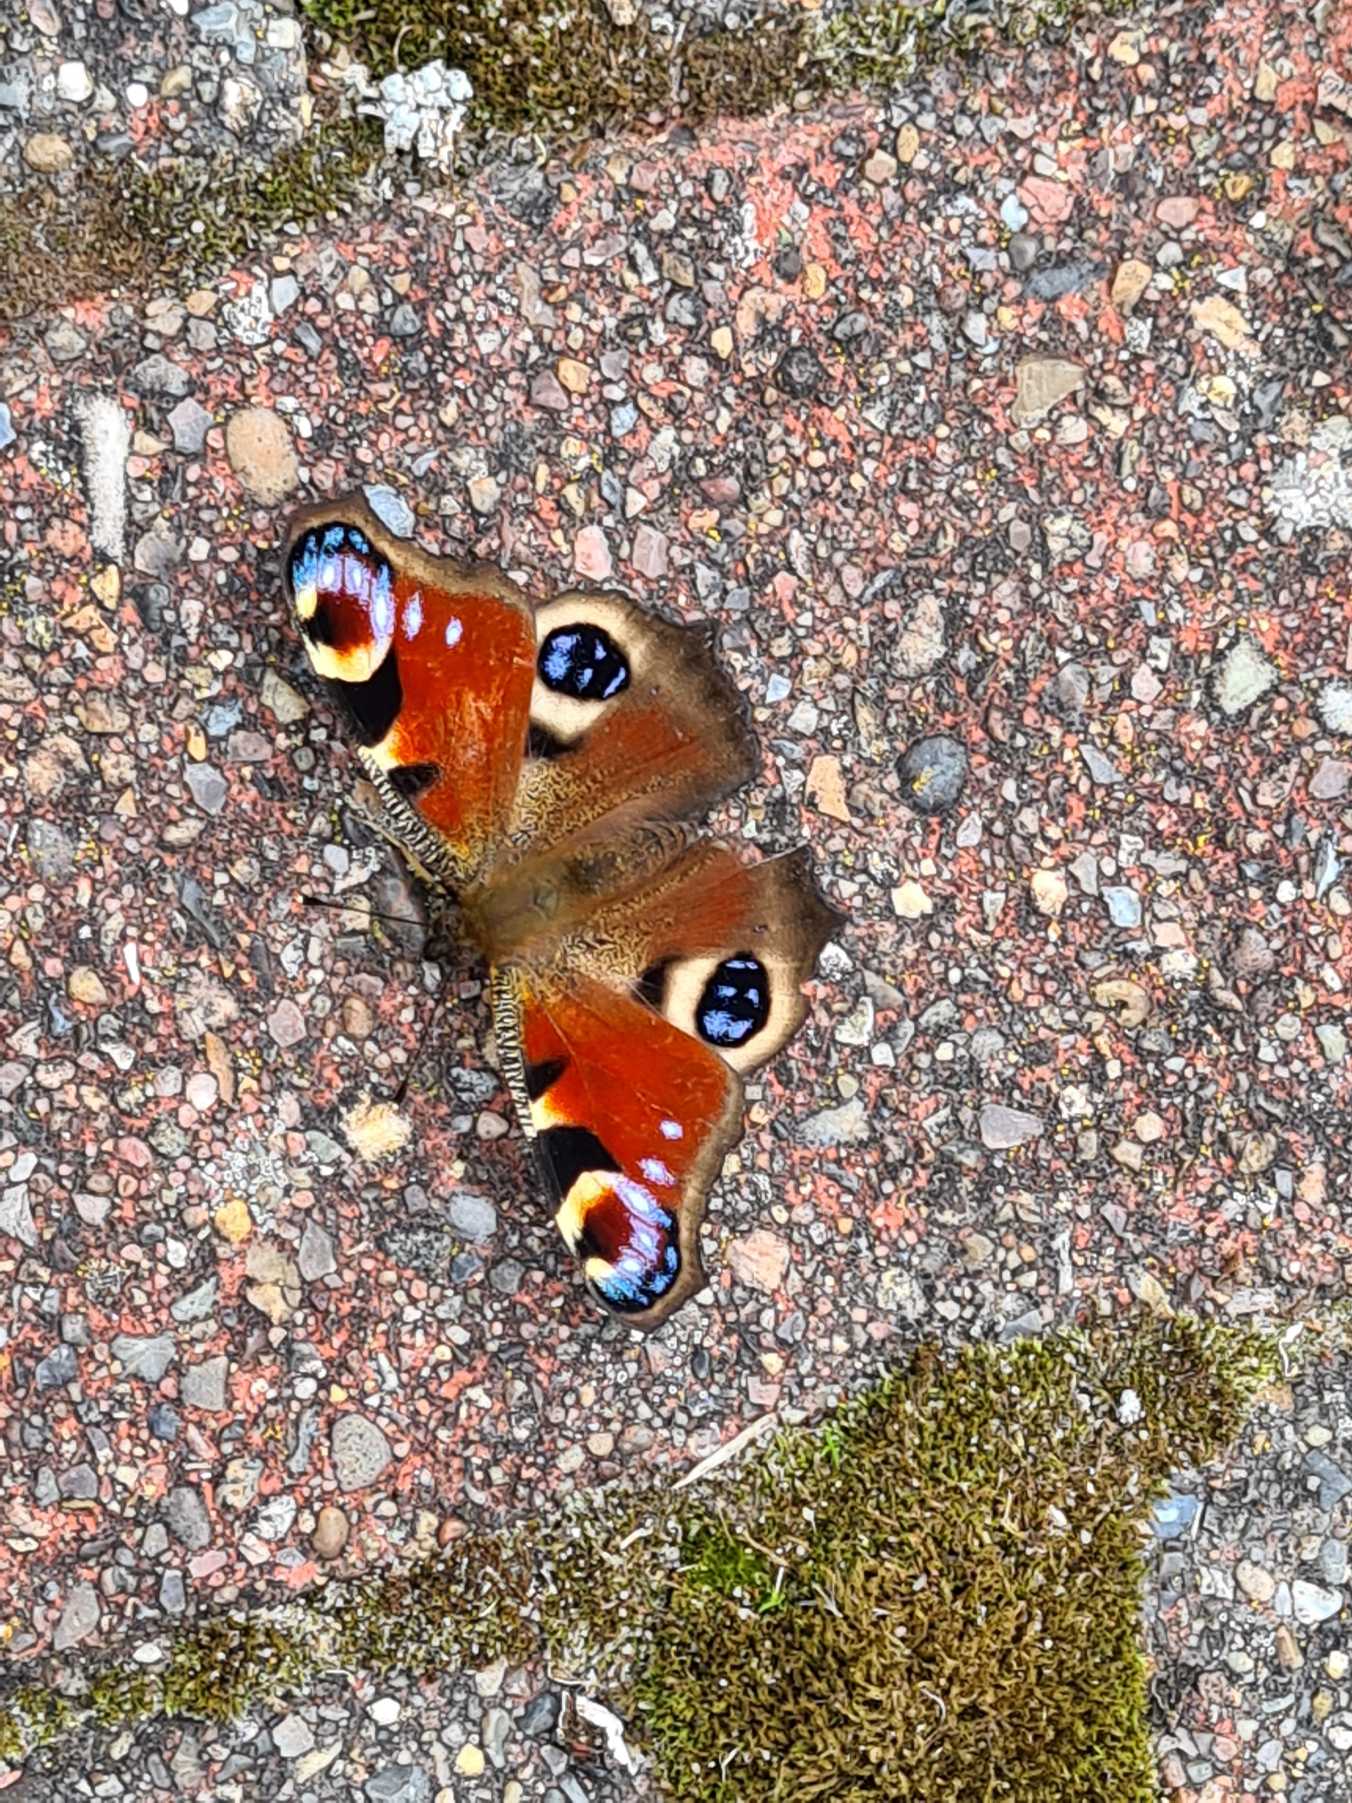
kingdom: Animalia
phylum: Arthropoda
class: Insecta
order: Lepidoptera
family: Nymphalidae
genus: Aglais
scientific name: Aglais io
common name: Dagpåfugleøje
